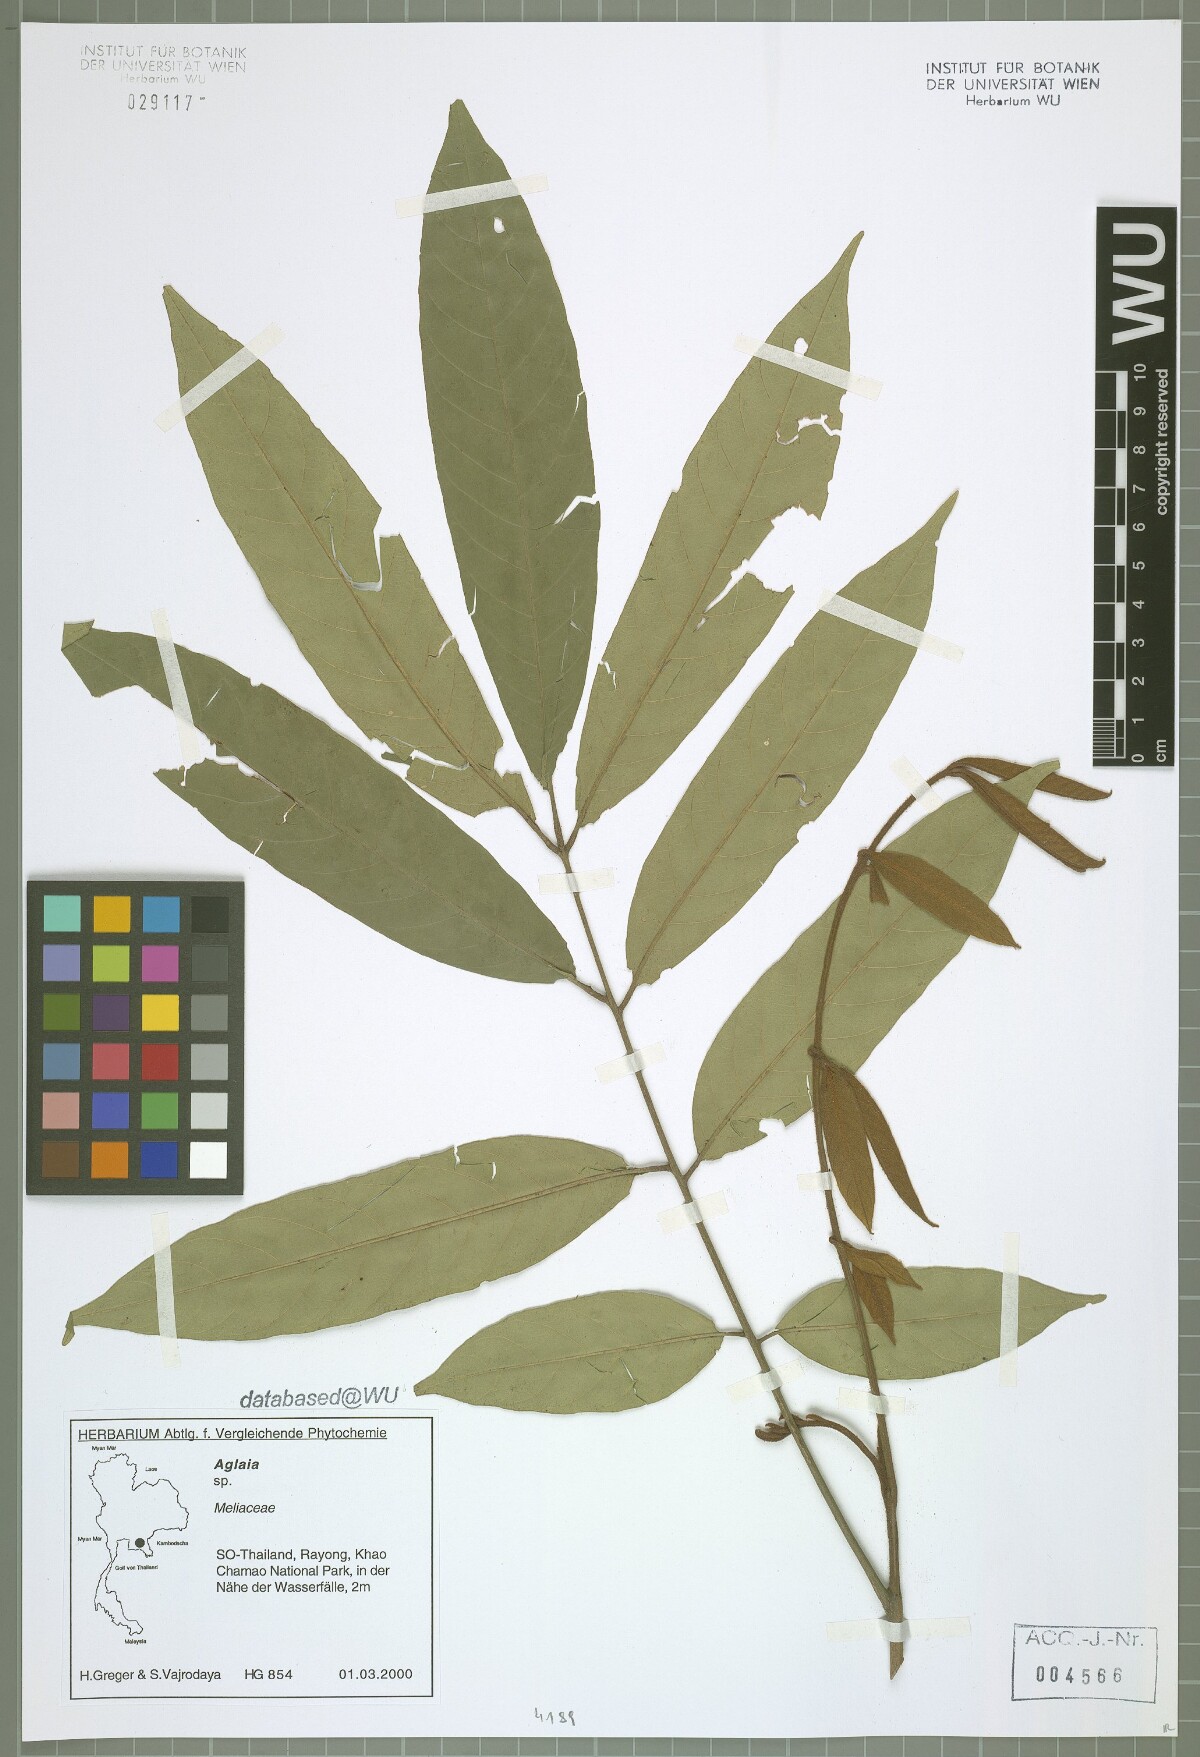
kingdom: Plantae
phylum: Tracheophyta
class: Magnoliopsida
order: Sapindales
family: Meliaceae
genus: Aglaia
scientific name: Aglaia edulis
